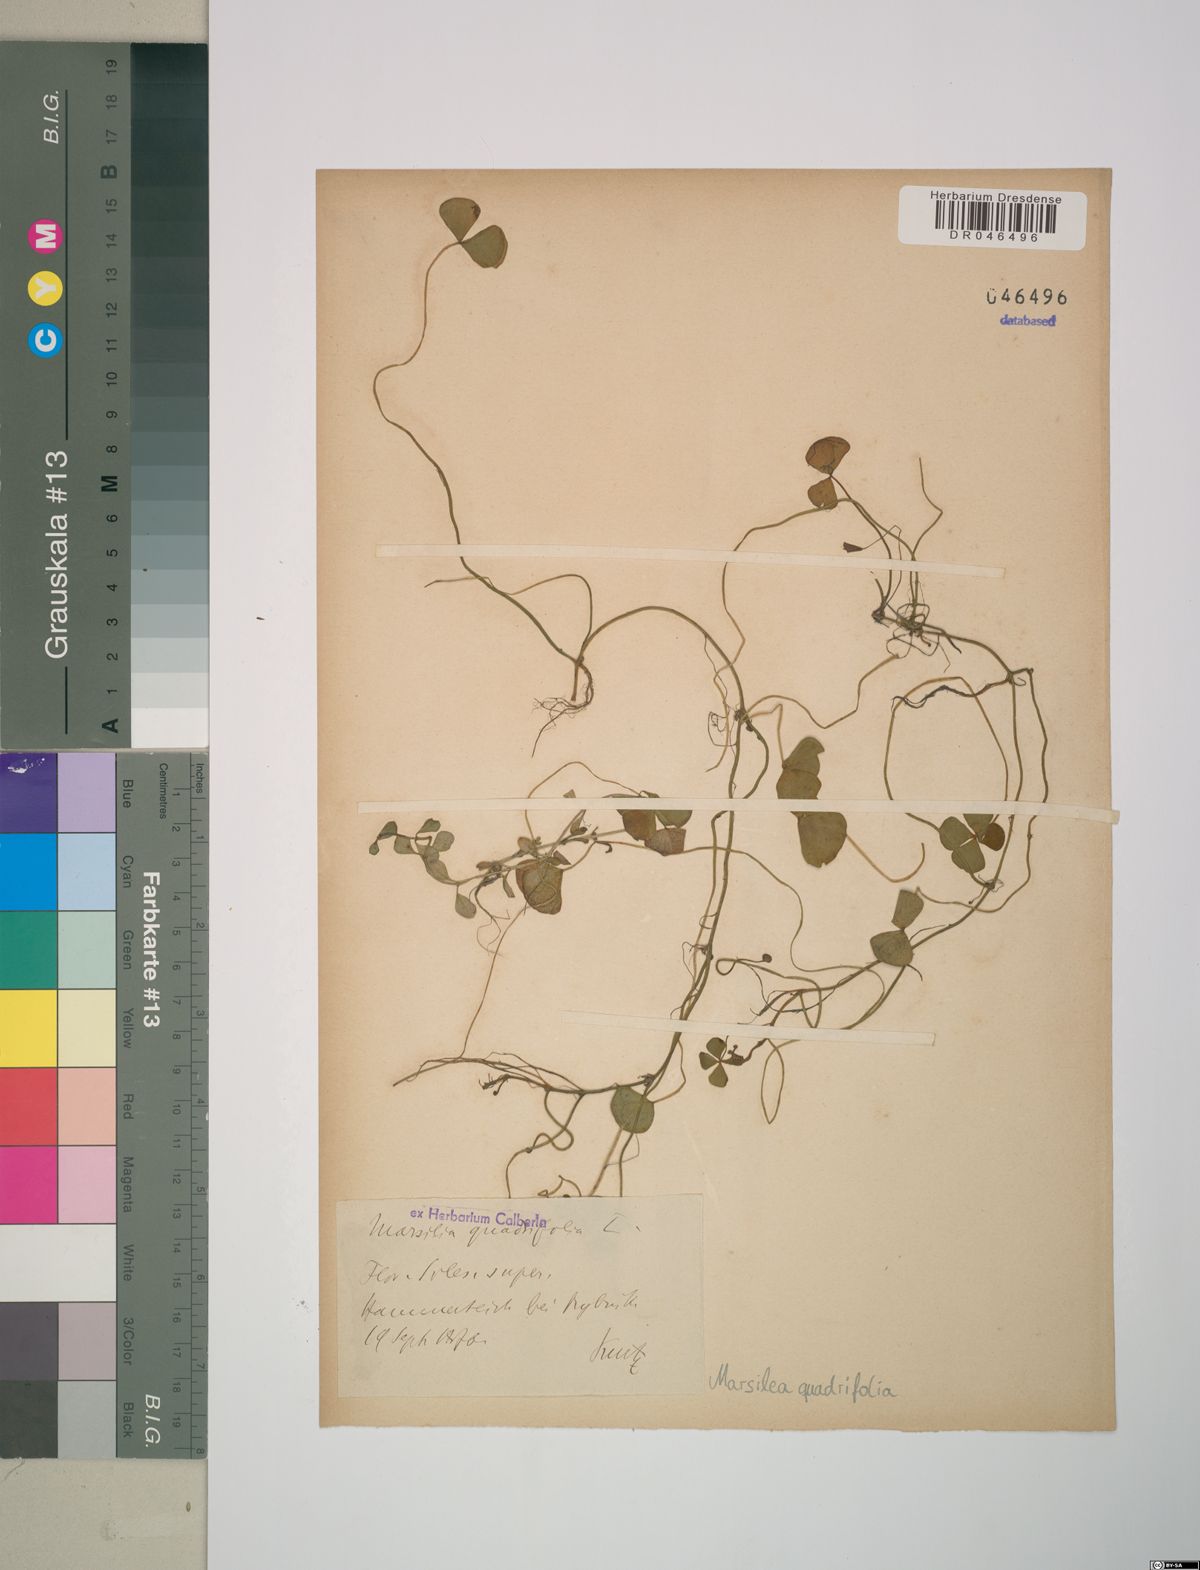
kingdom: Plantae
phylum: Tracheophyta
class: Polypodiopsida
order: Salviniales
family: Marsileaceae
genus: Marsilea
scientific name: Marsilea quadrifolia
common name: Water shamrock
